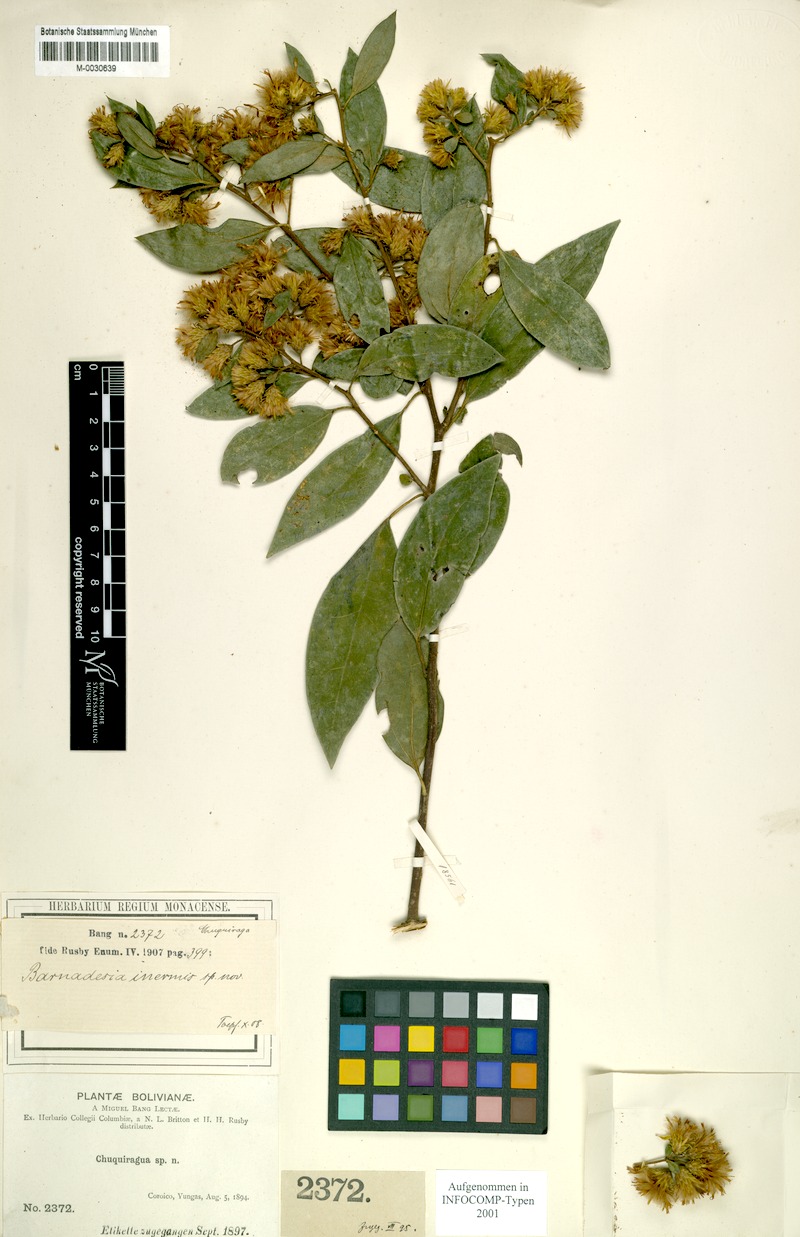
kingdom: Plantae
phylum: Tracheophyta
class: Magnoliopsida
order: Asterales
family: Asteraceae
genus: Dasyphyllum
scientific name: Dasyphyllum inerme
